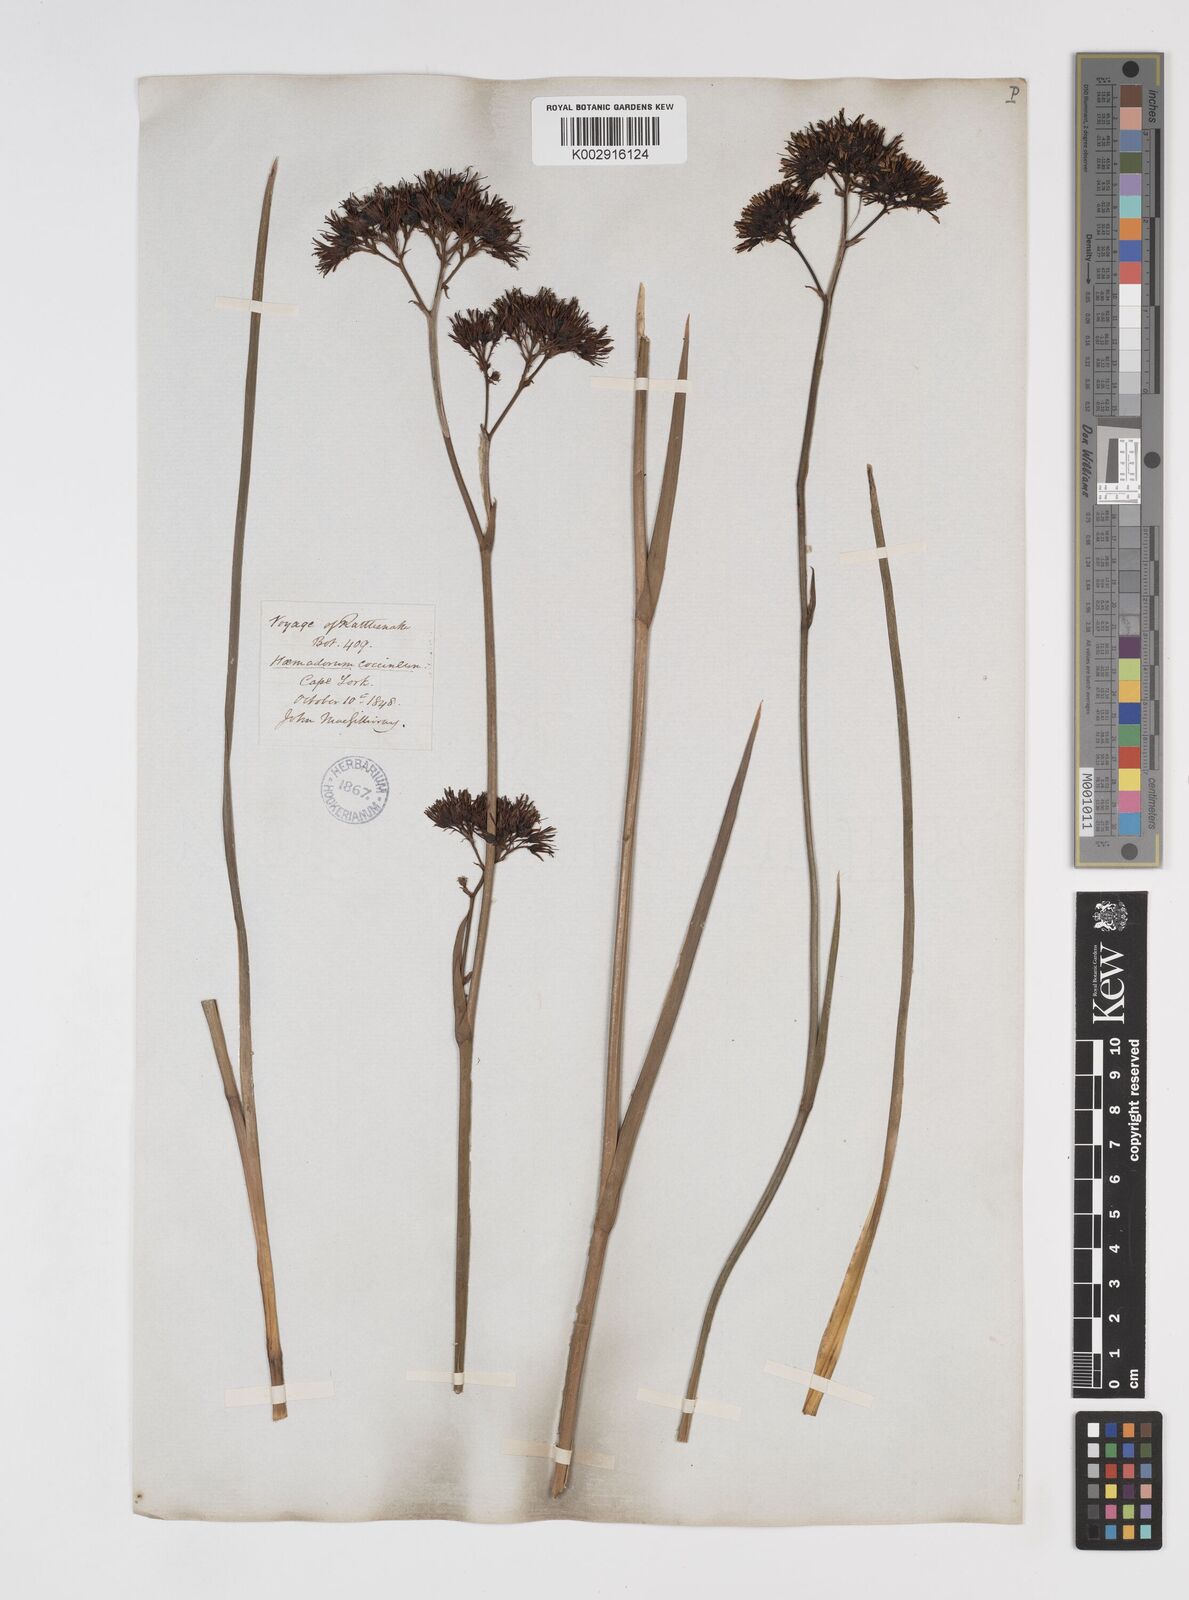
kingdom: Plantae
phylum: Tracheophyta
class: Liliopsida
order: Commelinales
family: Haemodoraceae
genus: Haemodorum
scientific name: Haemodorum coccineum
